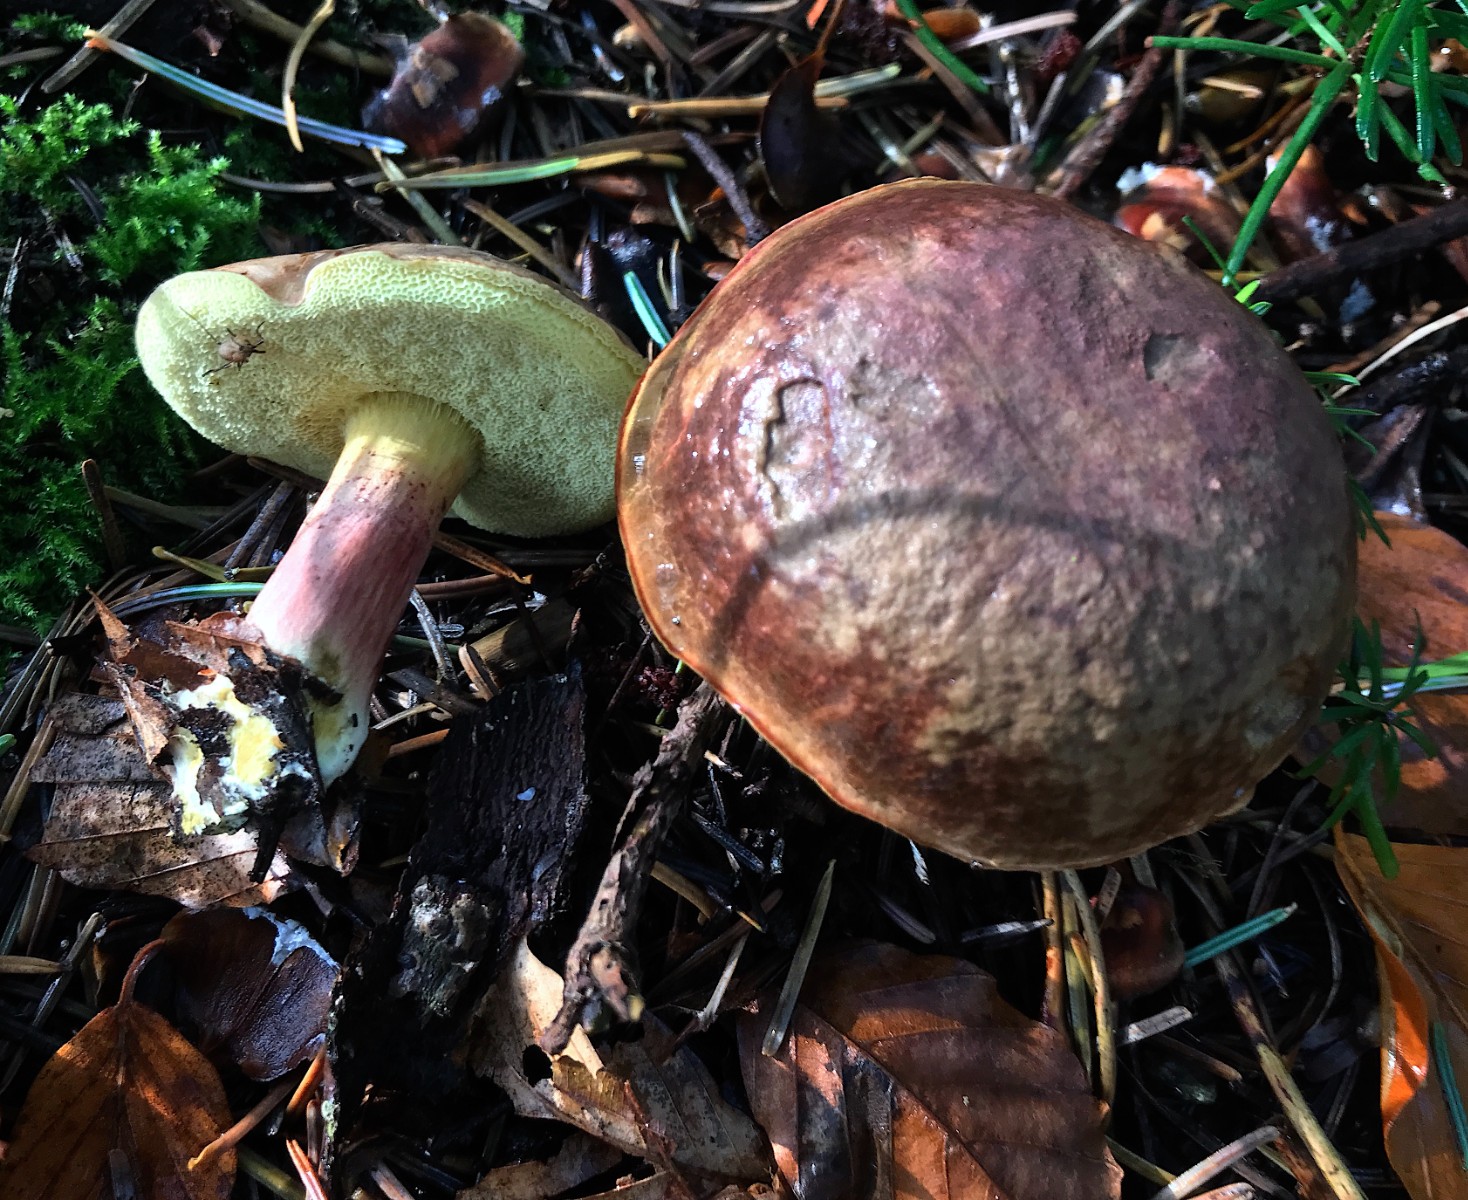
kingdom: Fungi
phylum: Basidiomycota
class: Agaricomycetes
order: Boletales
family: Boletaceae
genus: Xerocomellus
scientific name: Xerocomellus pruinatus
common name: dugget rørhat
